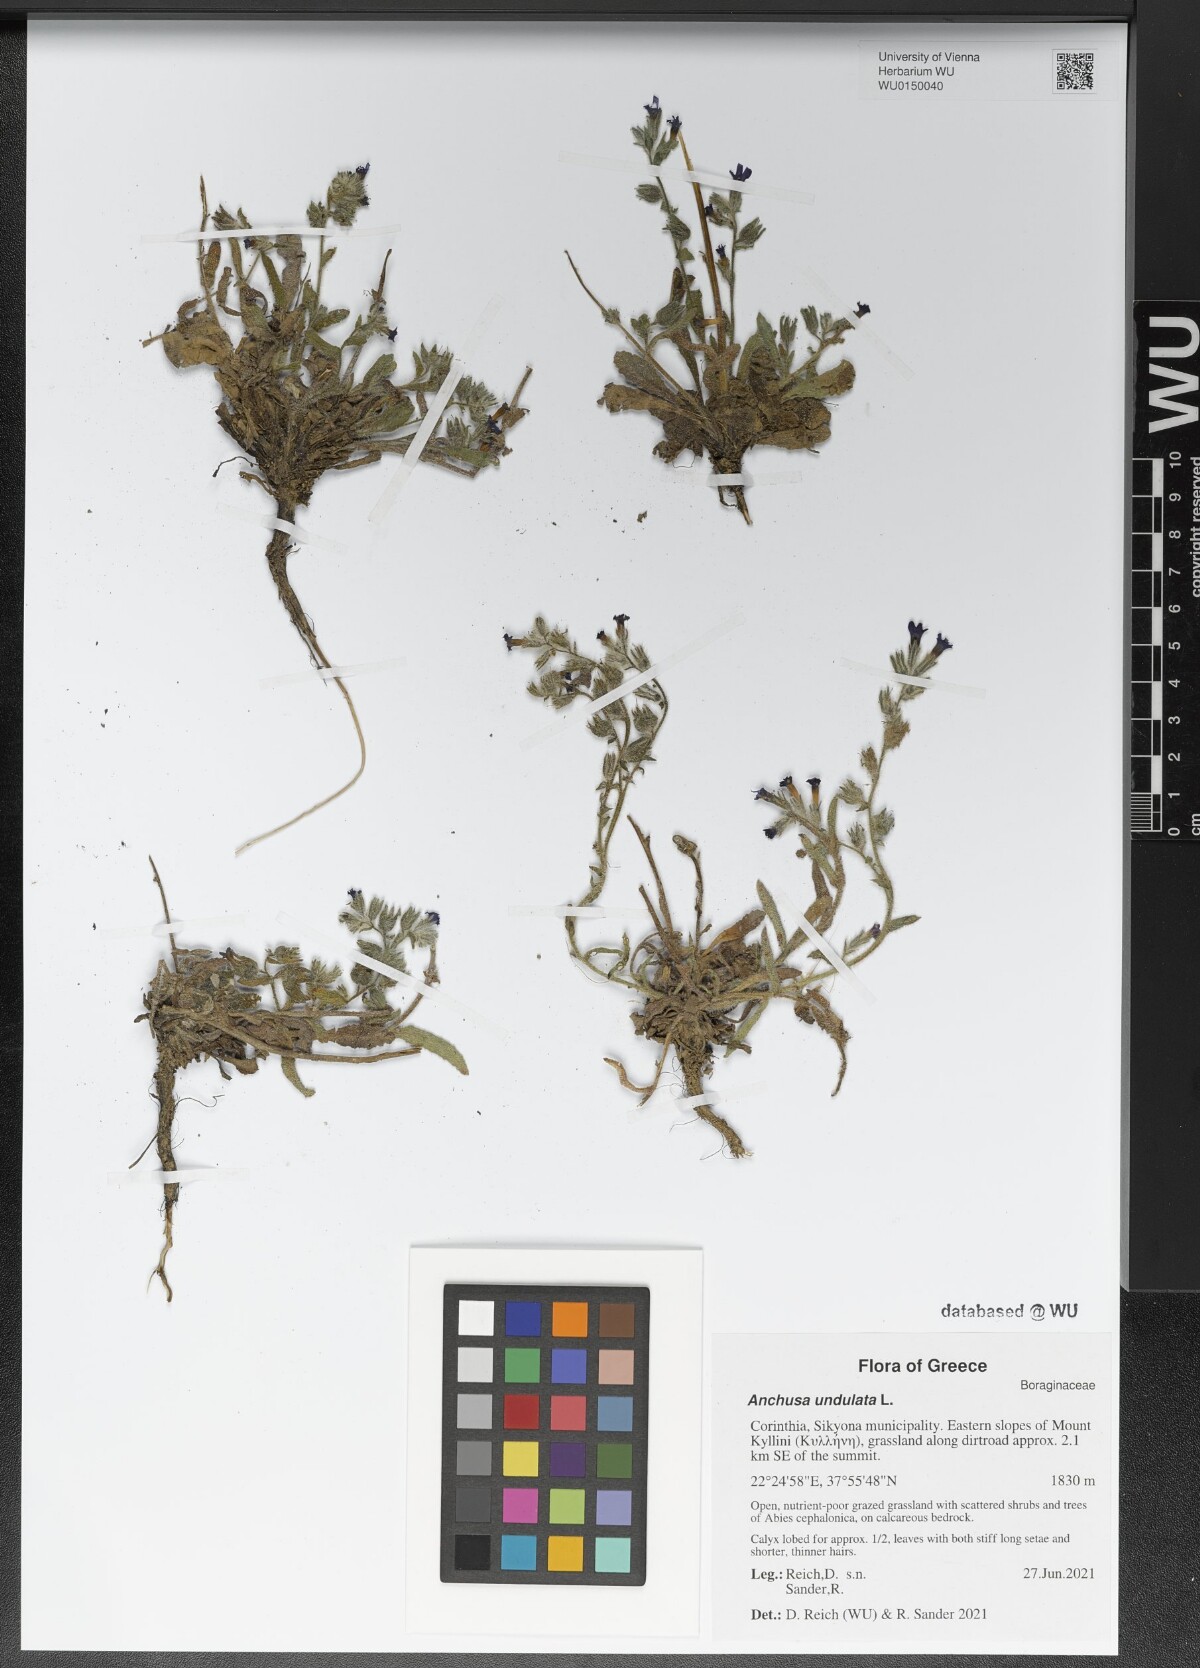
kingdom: Plantae
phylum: Tracheophyta
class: Magnoliopsida
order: Boraginales
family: Boraginaceae
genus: Anchusa
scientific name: Anchusa undulata
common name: Undulate alkanet
